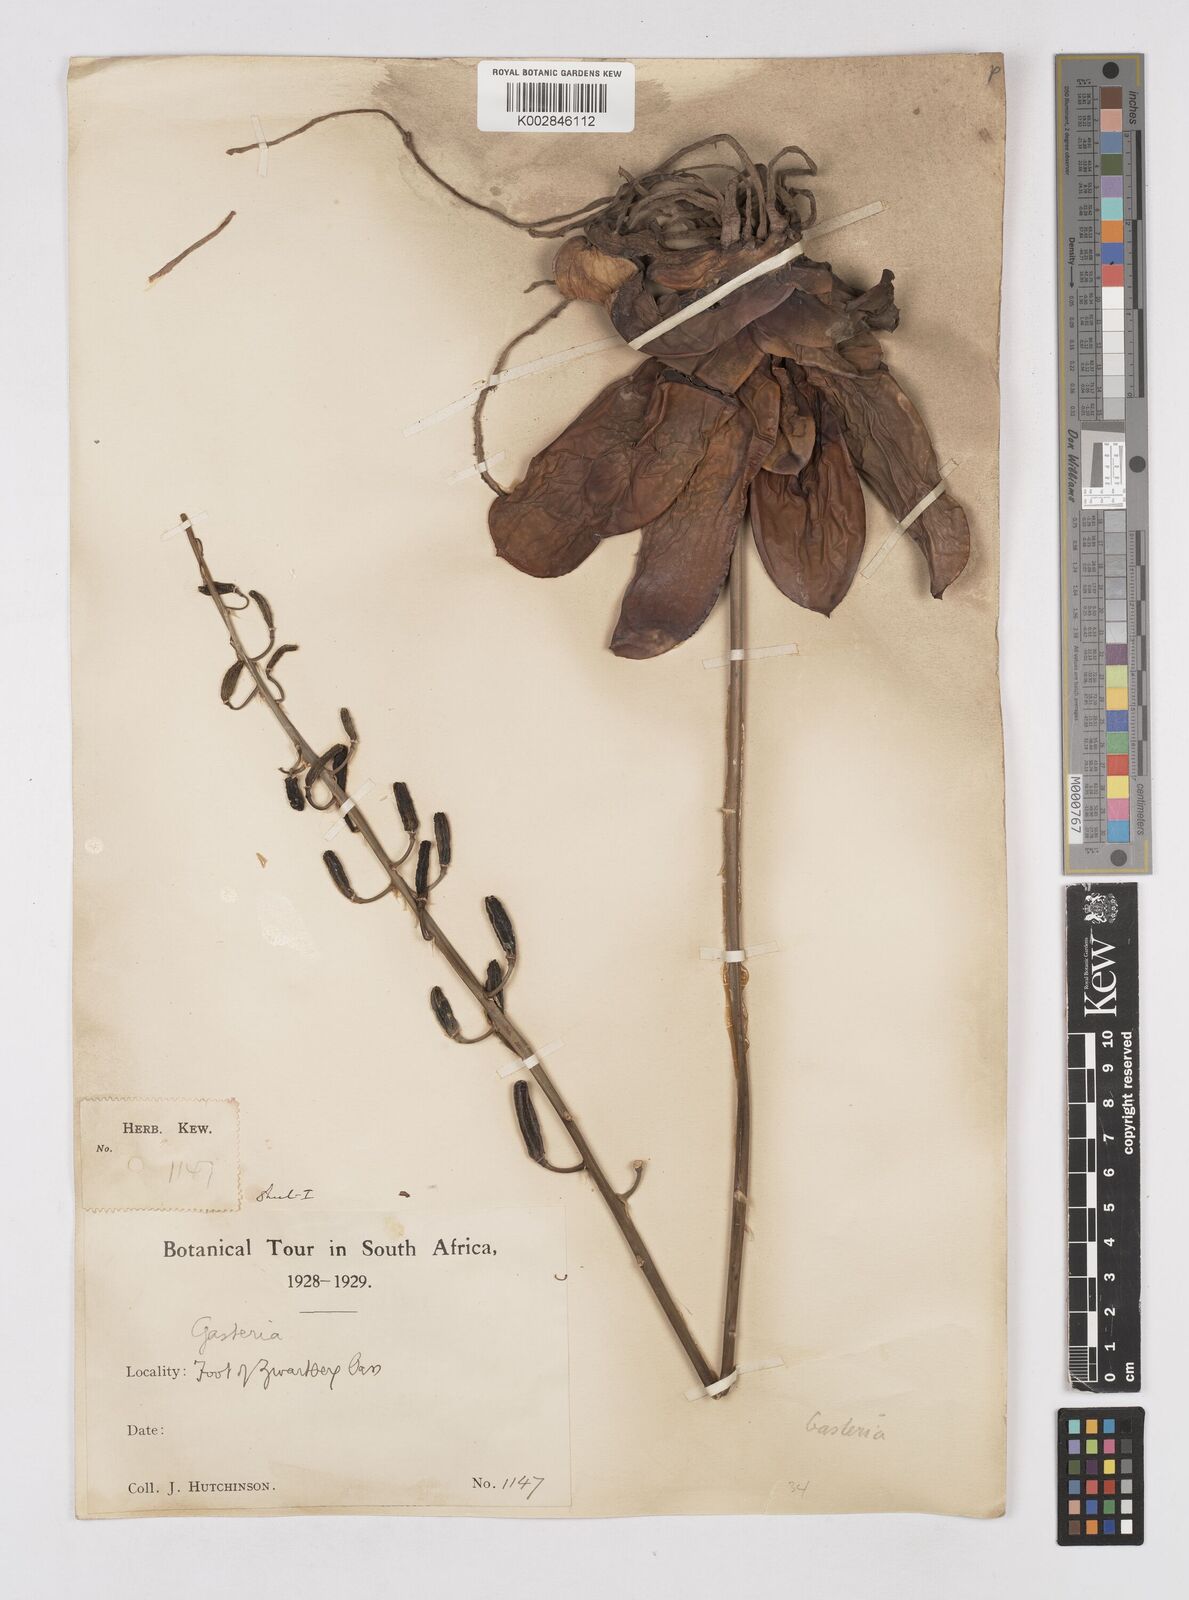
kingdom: Plantae
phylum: Tracheophyta
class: Liliopsida
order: Asparagales
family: Asphodelaceae
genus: Gasteria
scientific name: Gasteria
